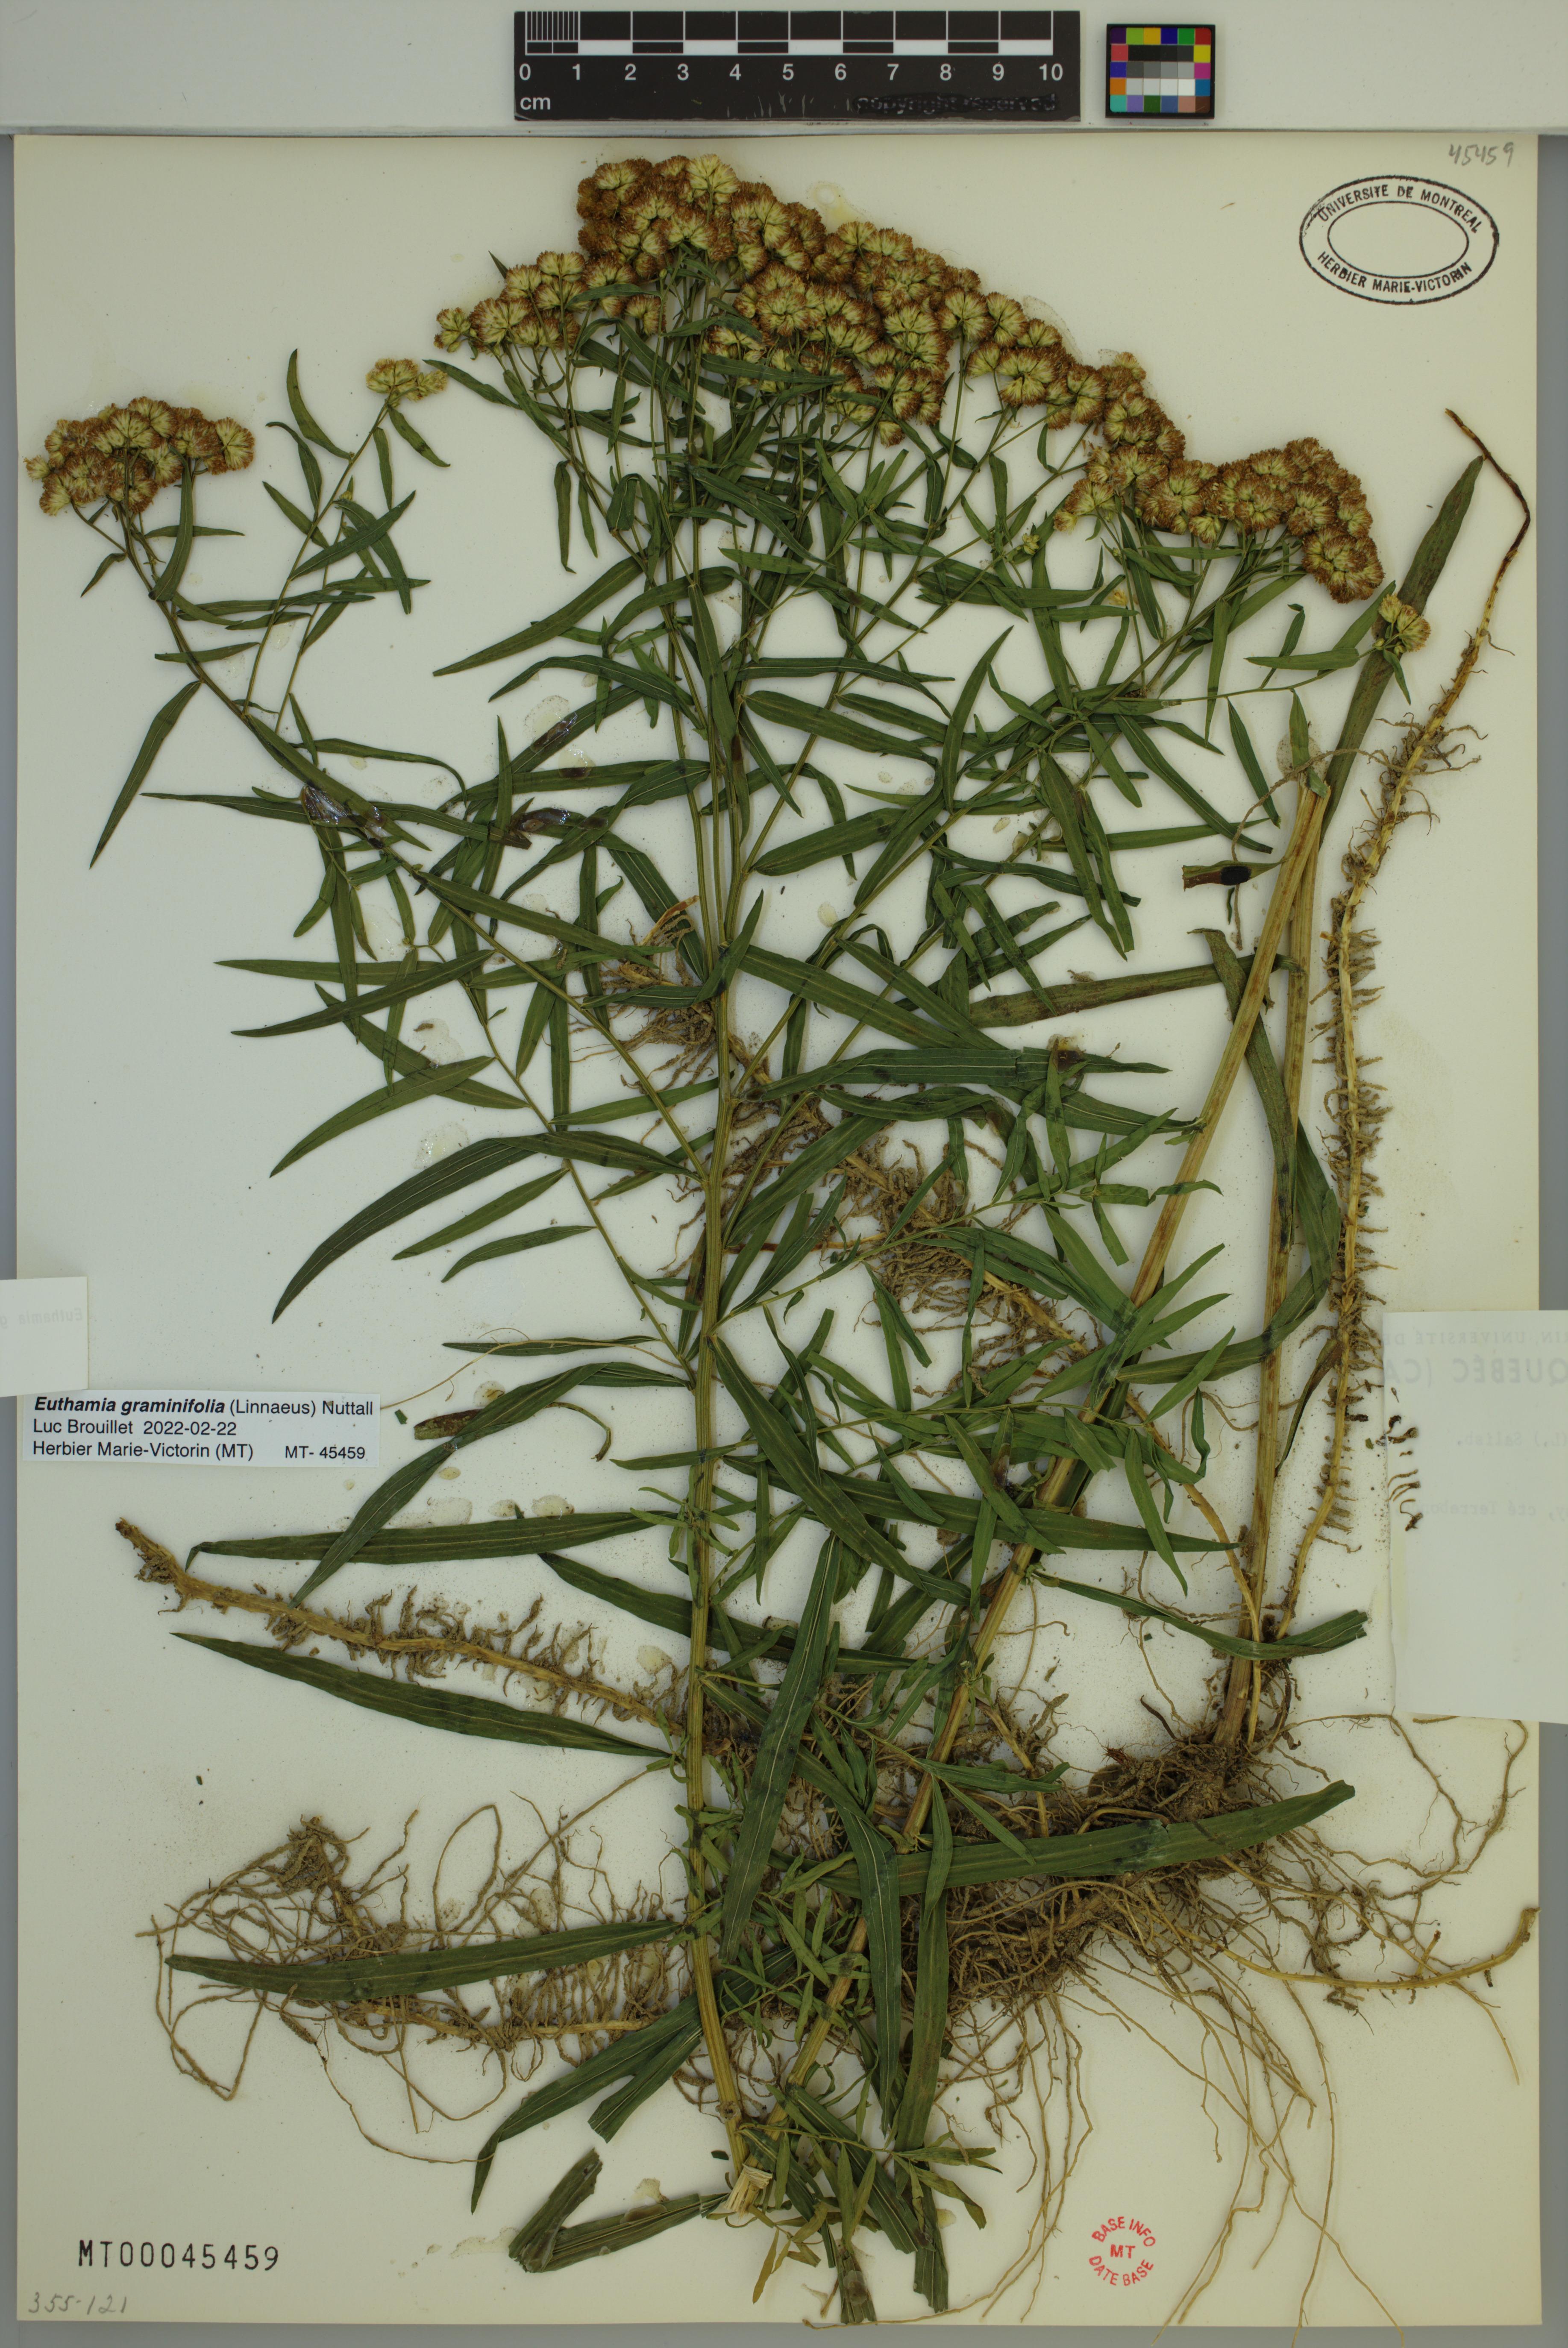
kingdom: Plantae
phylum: Tracheophyta
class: Magnoliopsida
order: Asterales
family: Asteraceae
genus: Euthamia
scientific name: Euthamia graminifolia
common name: Common goldentop
